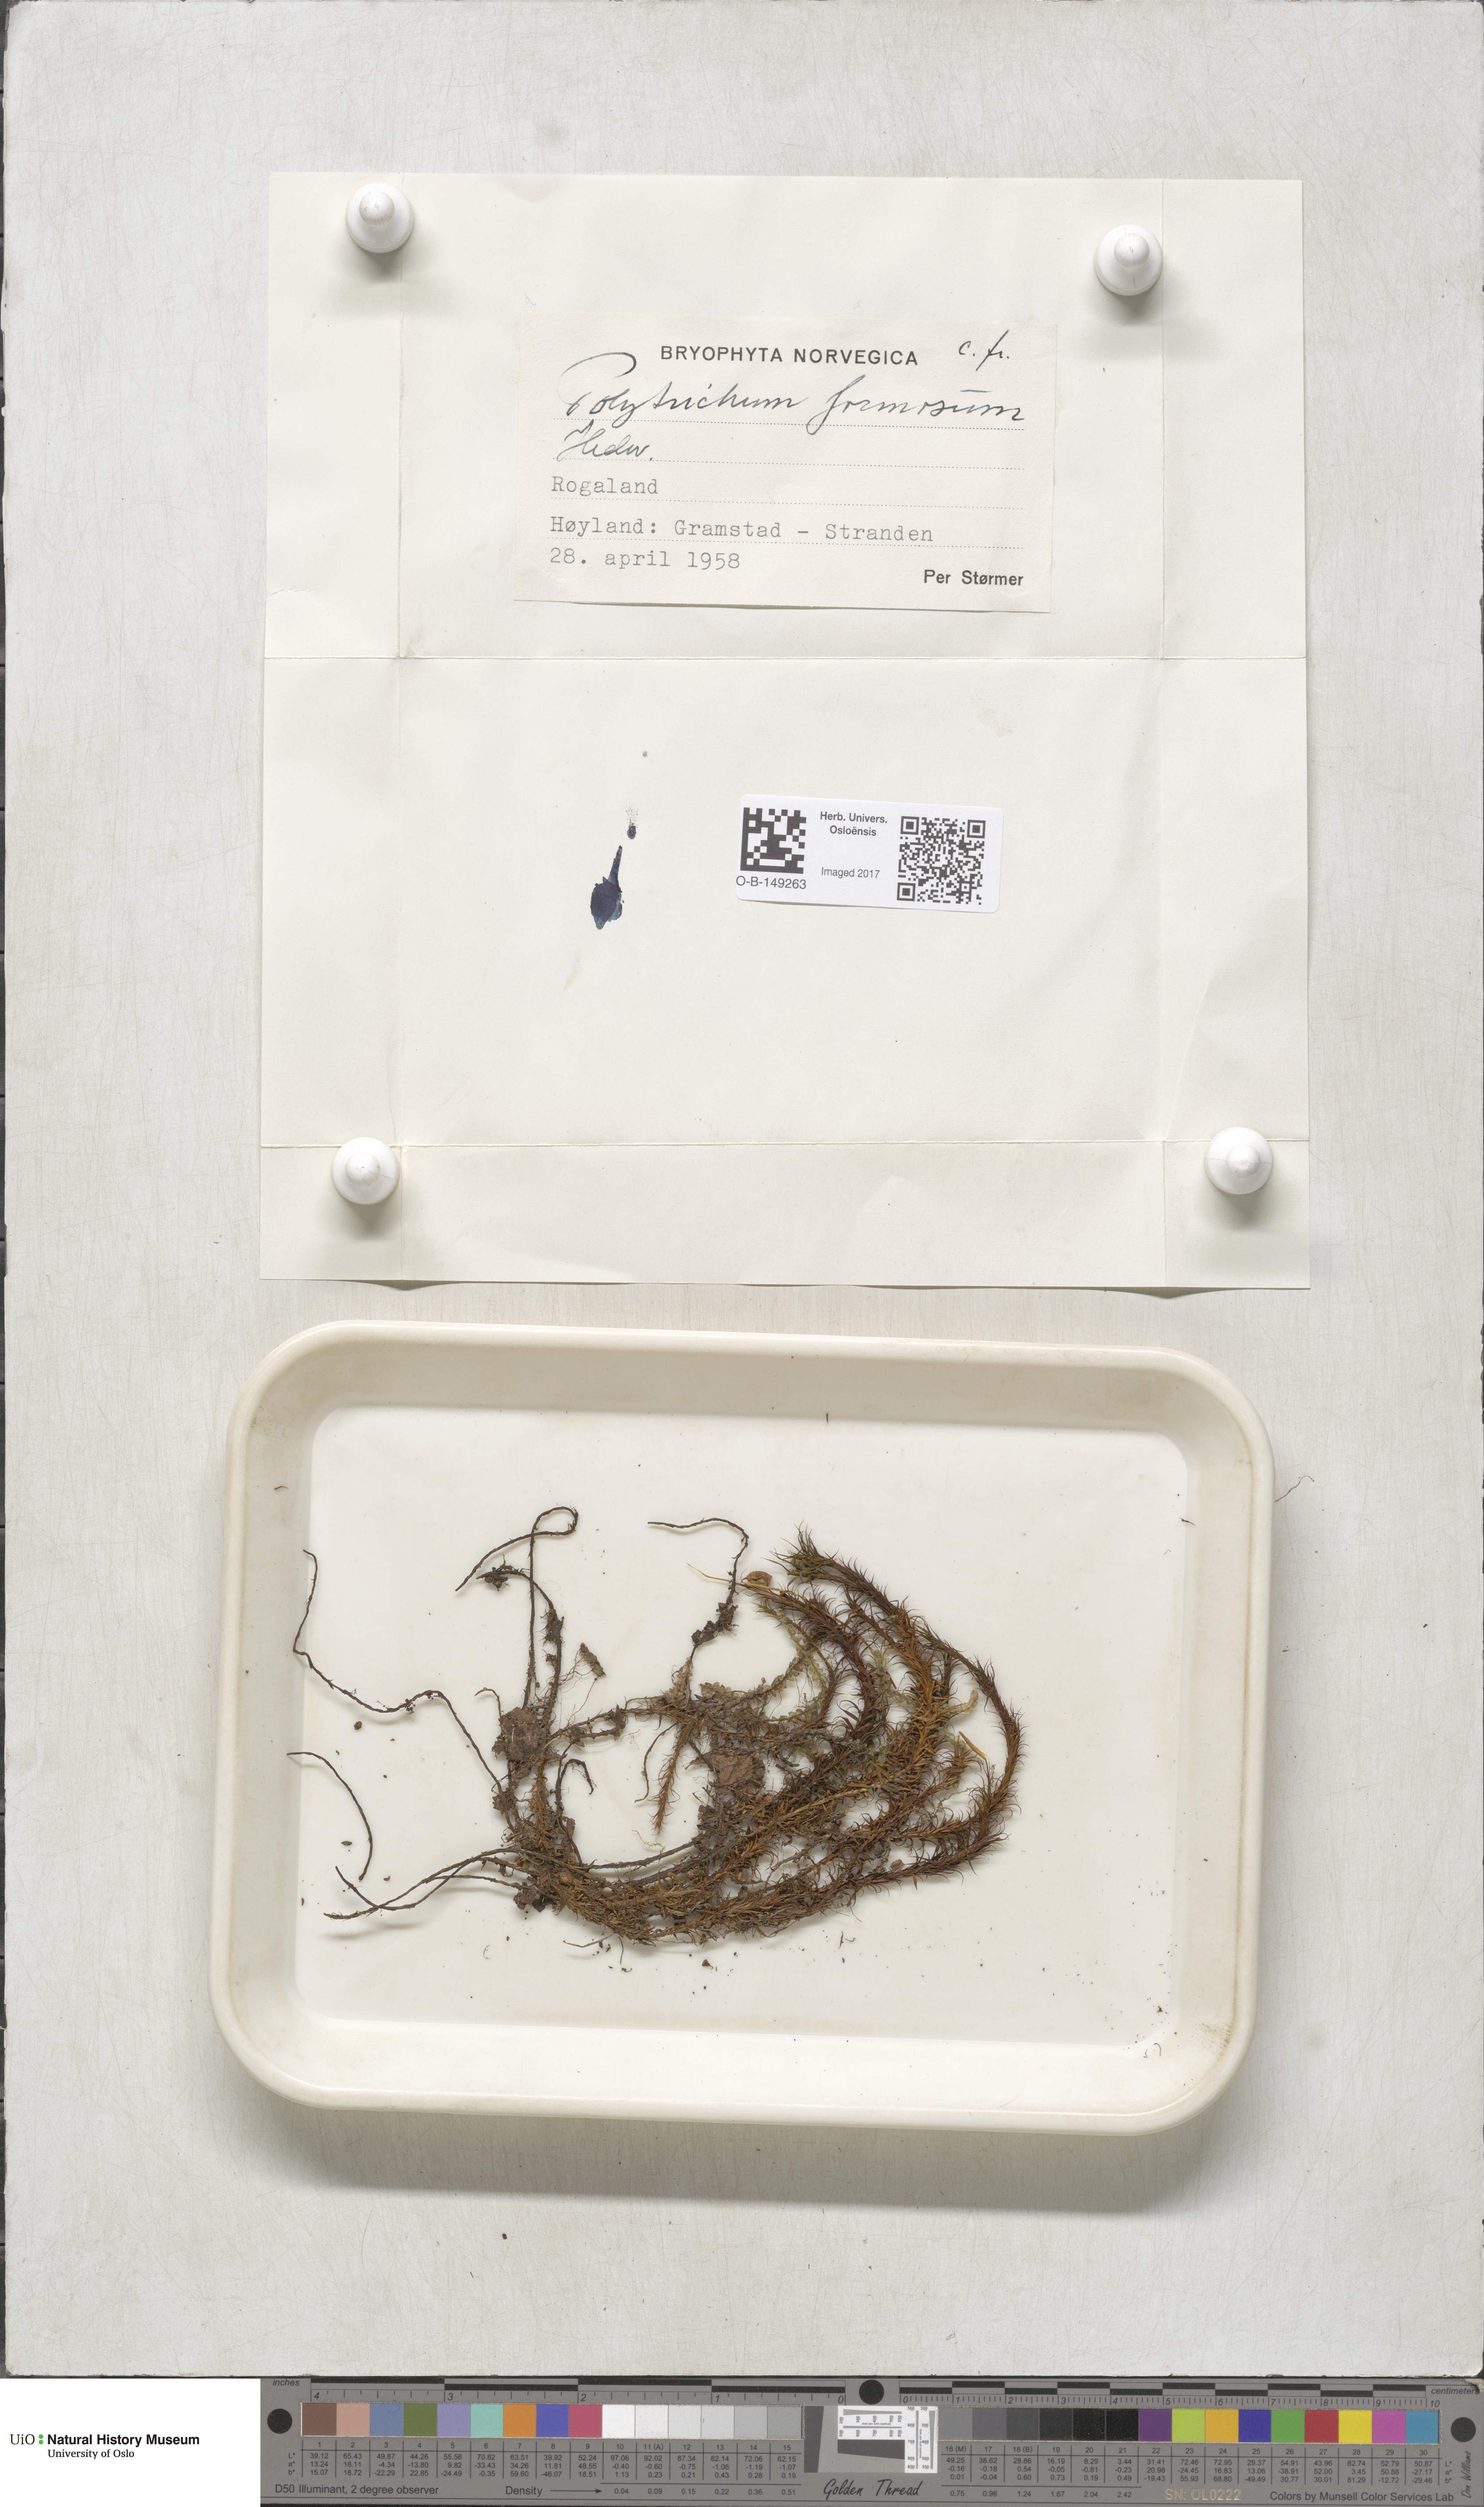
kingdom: Plantae
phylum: Bryophyta
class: Polytrichopsida
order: Polytrichales
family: Polytrichaceae
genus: Polytrichum
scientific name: Polytrichum formosum
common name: Bank haircap moss
